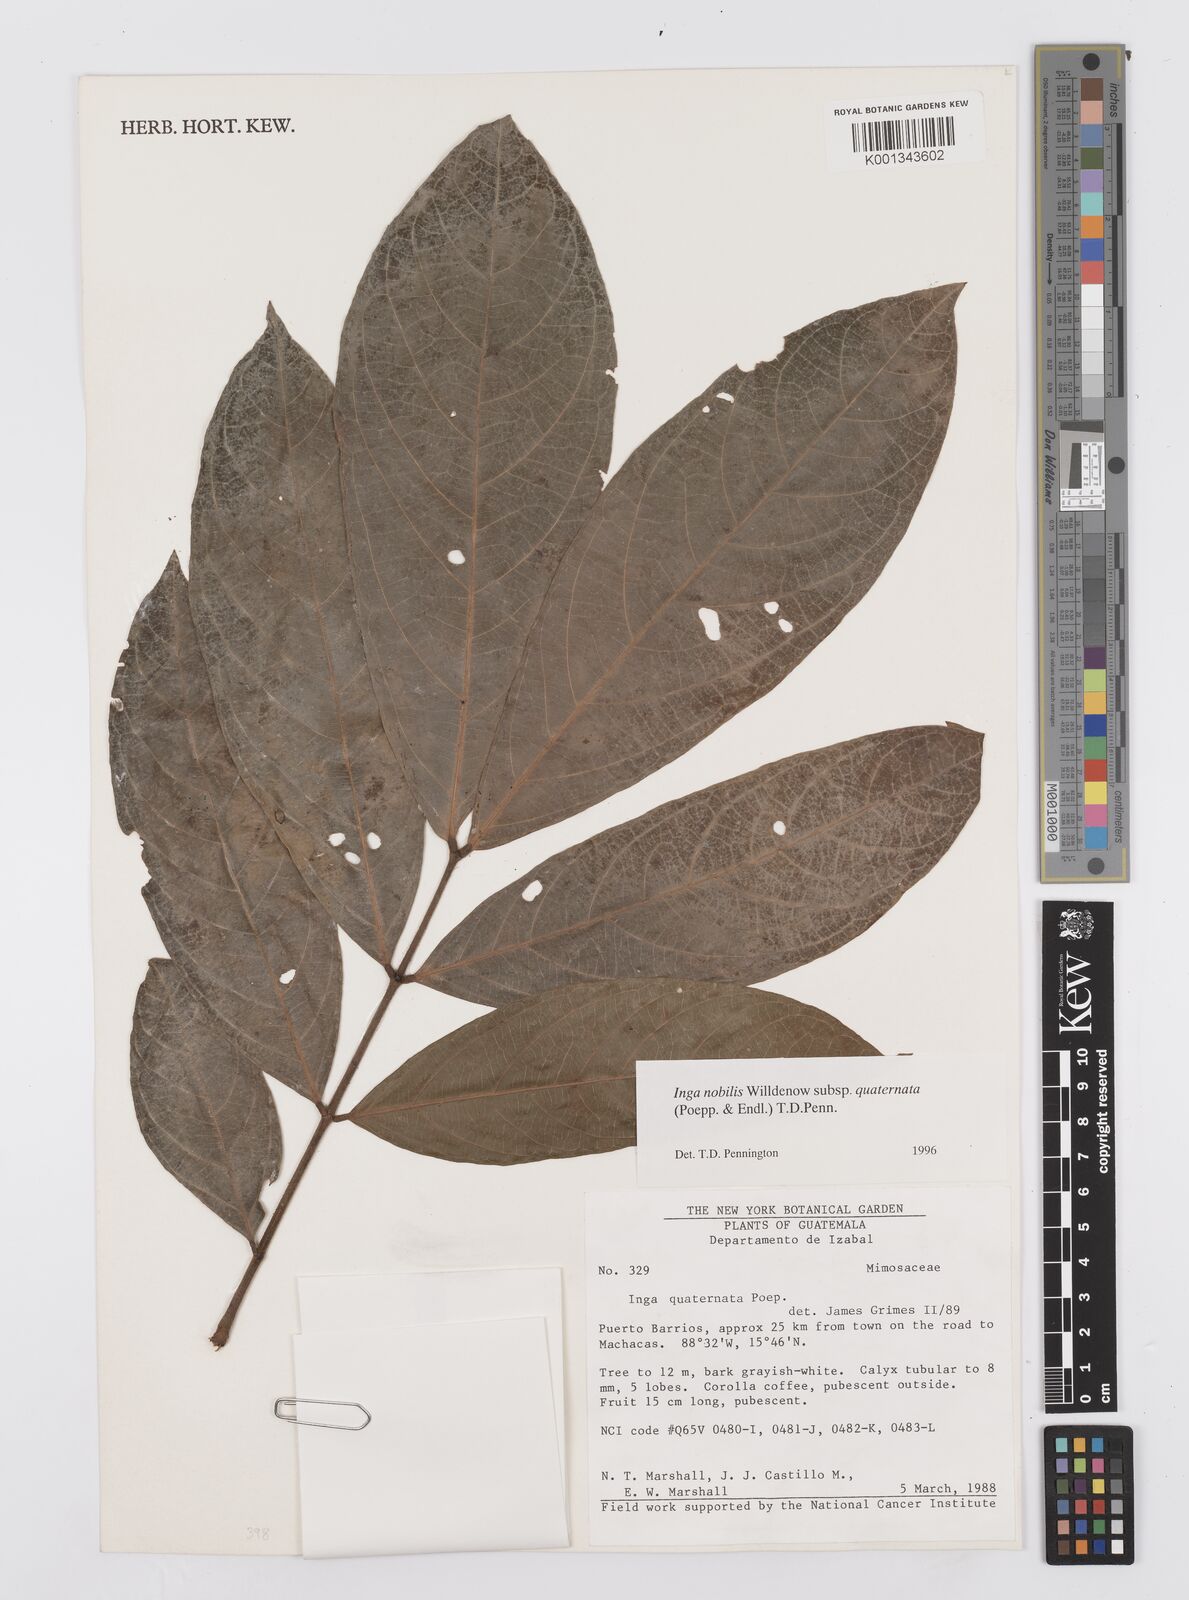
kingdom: Plantae
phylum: Tracheophyta
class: Magnoliopsida
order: Fabales
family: Fabaceae
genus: Inga
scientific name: Inga nobilis
